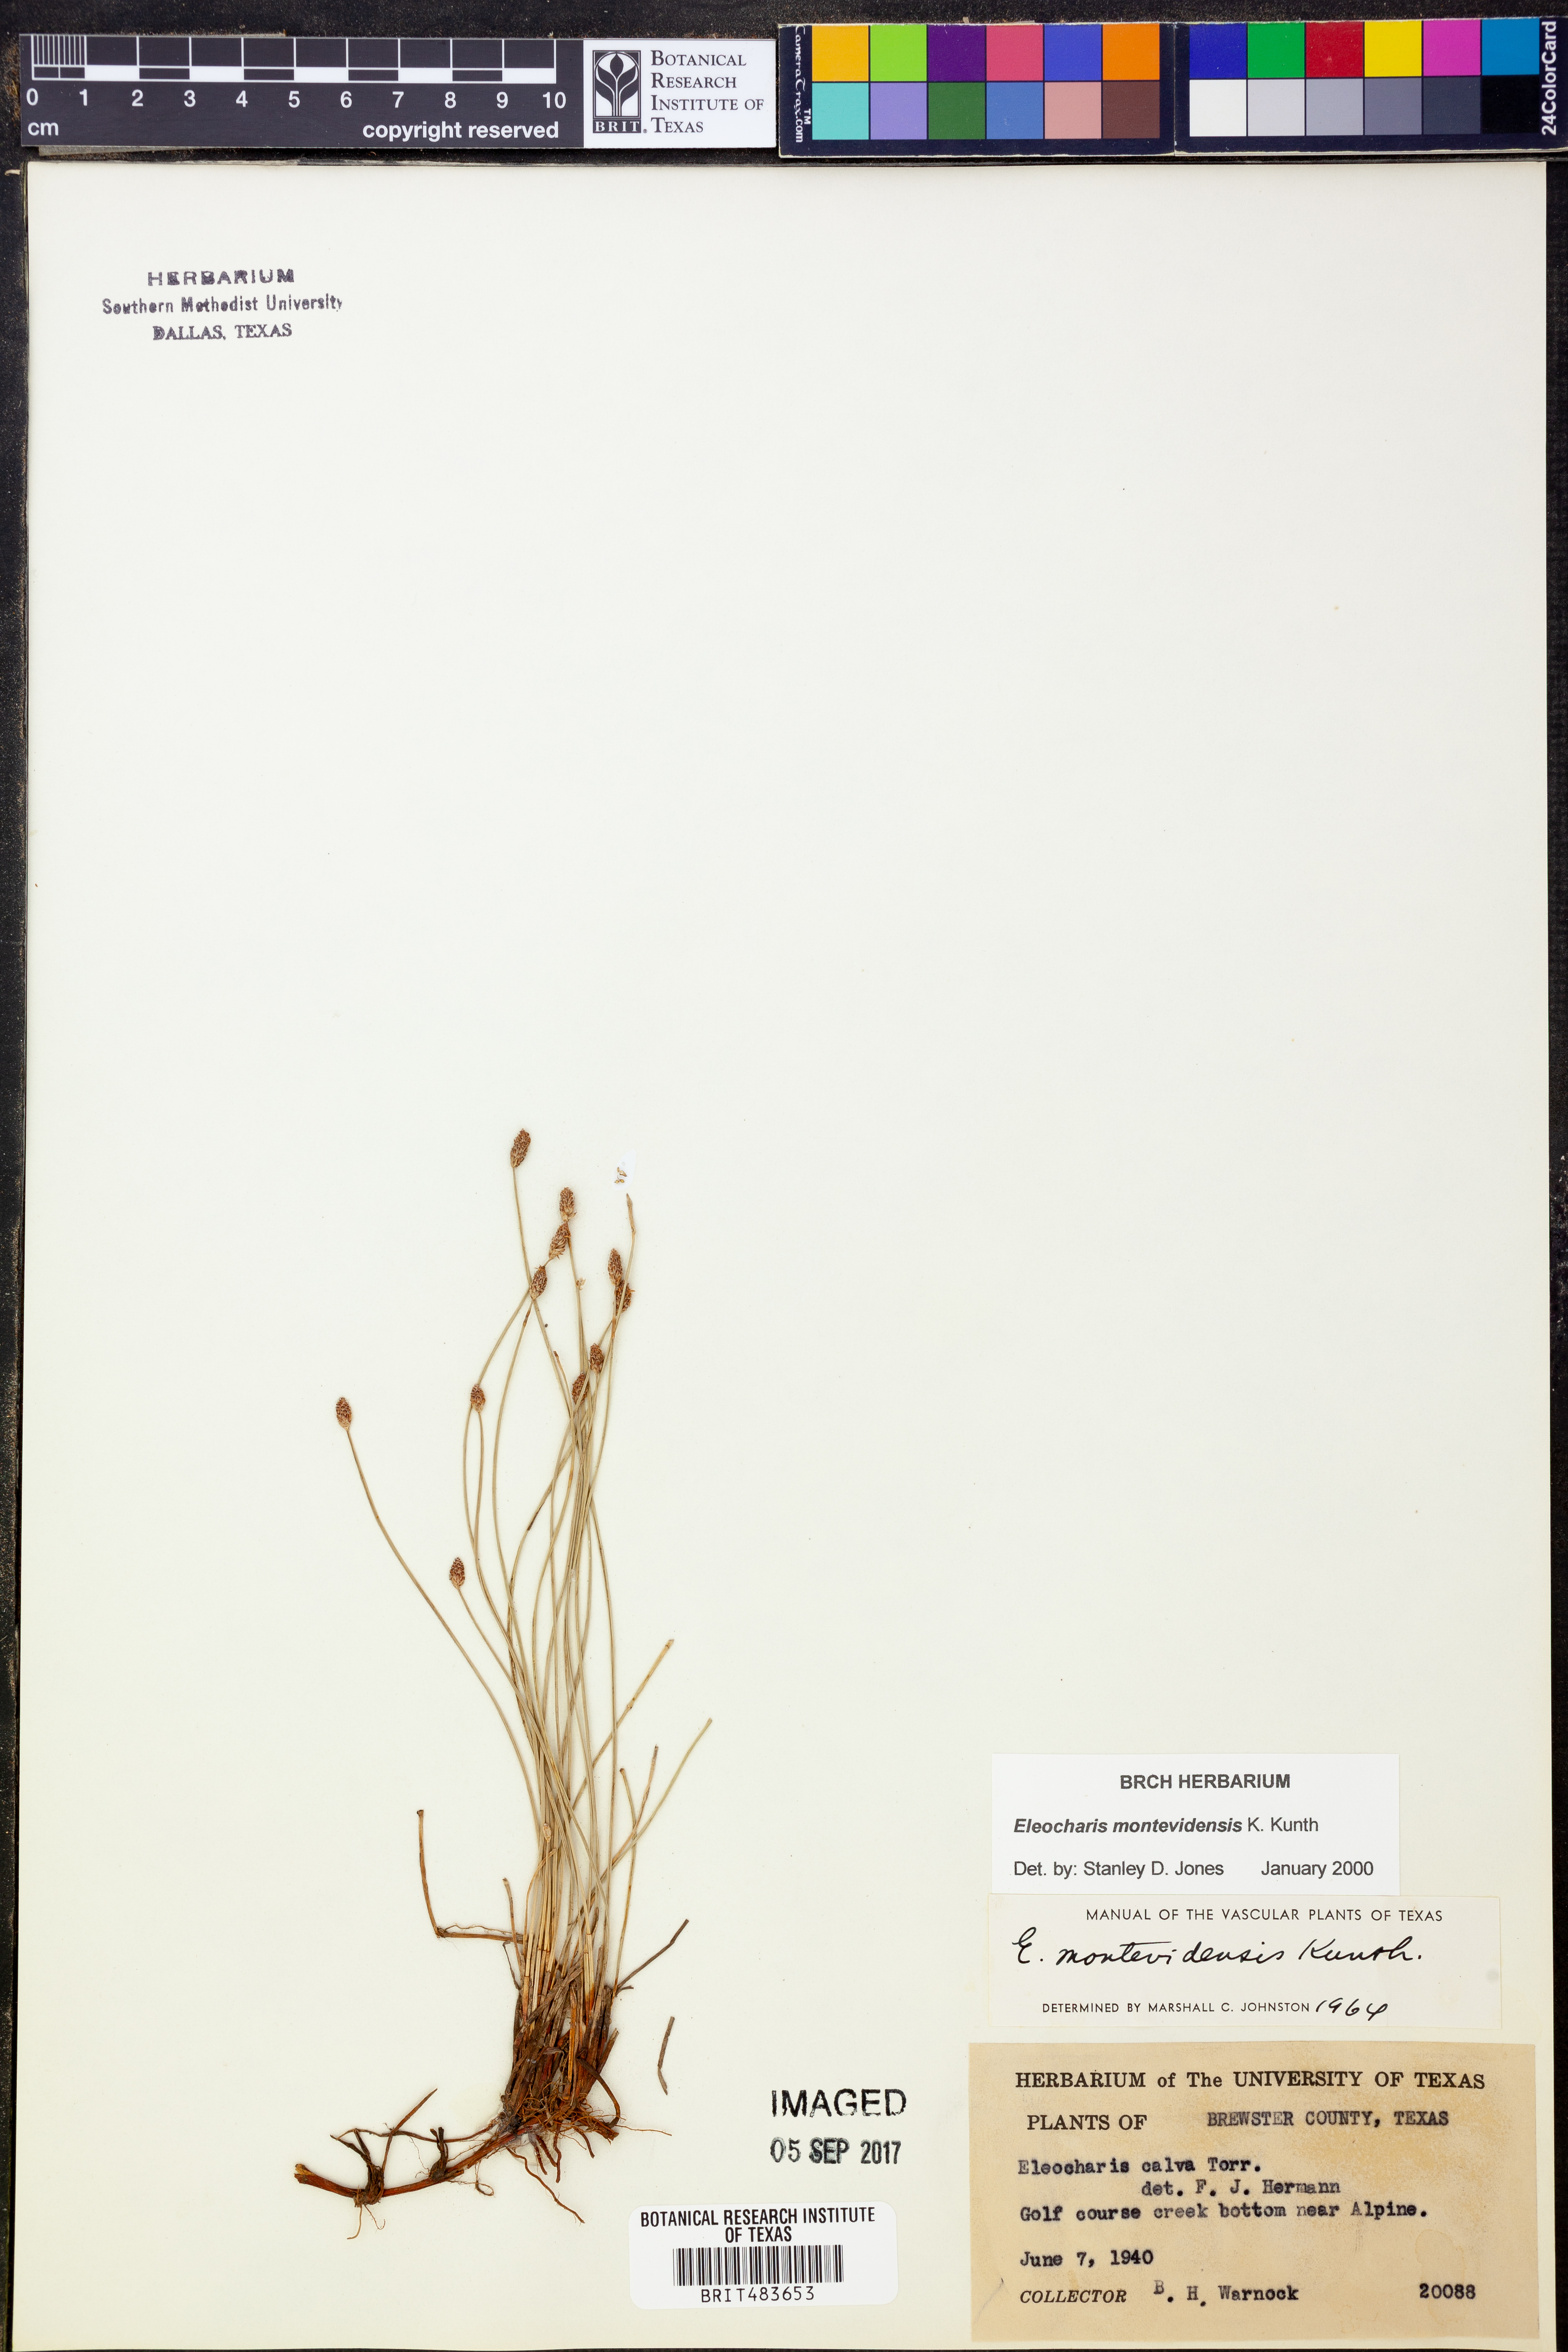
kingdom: Plantae
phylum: Tracheophyta
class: Liliopsida
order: Poales
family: Cyperaceae
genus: Eleocharis
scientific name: Eleocharis montevidensis
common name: Sand spike-rush
